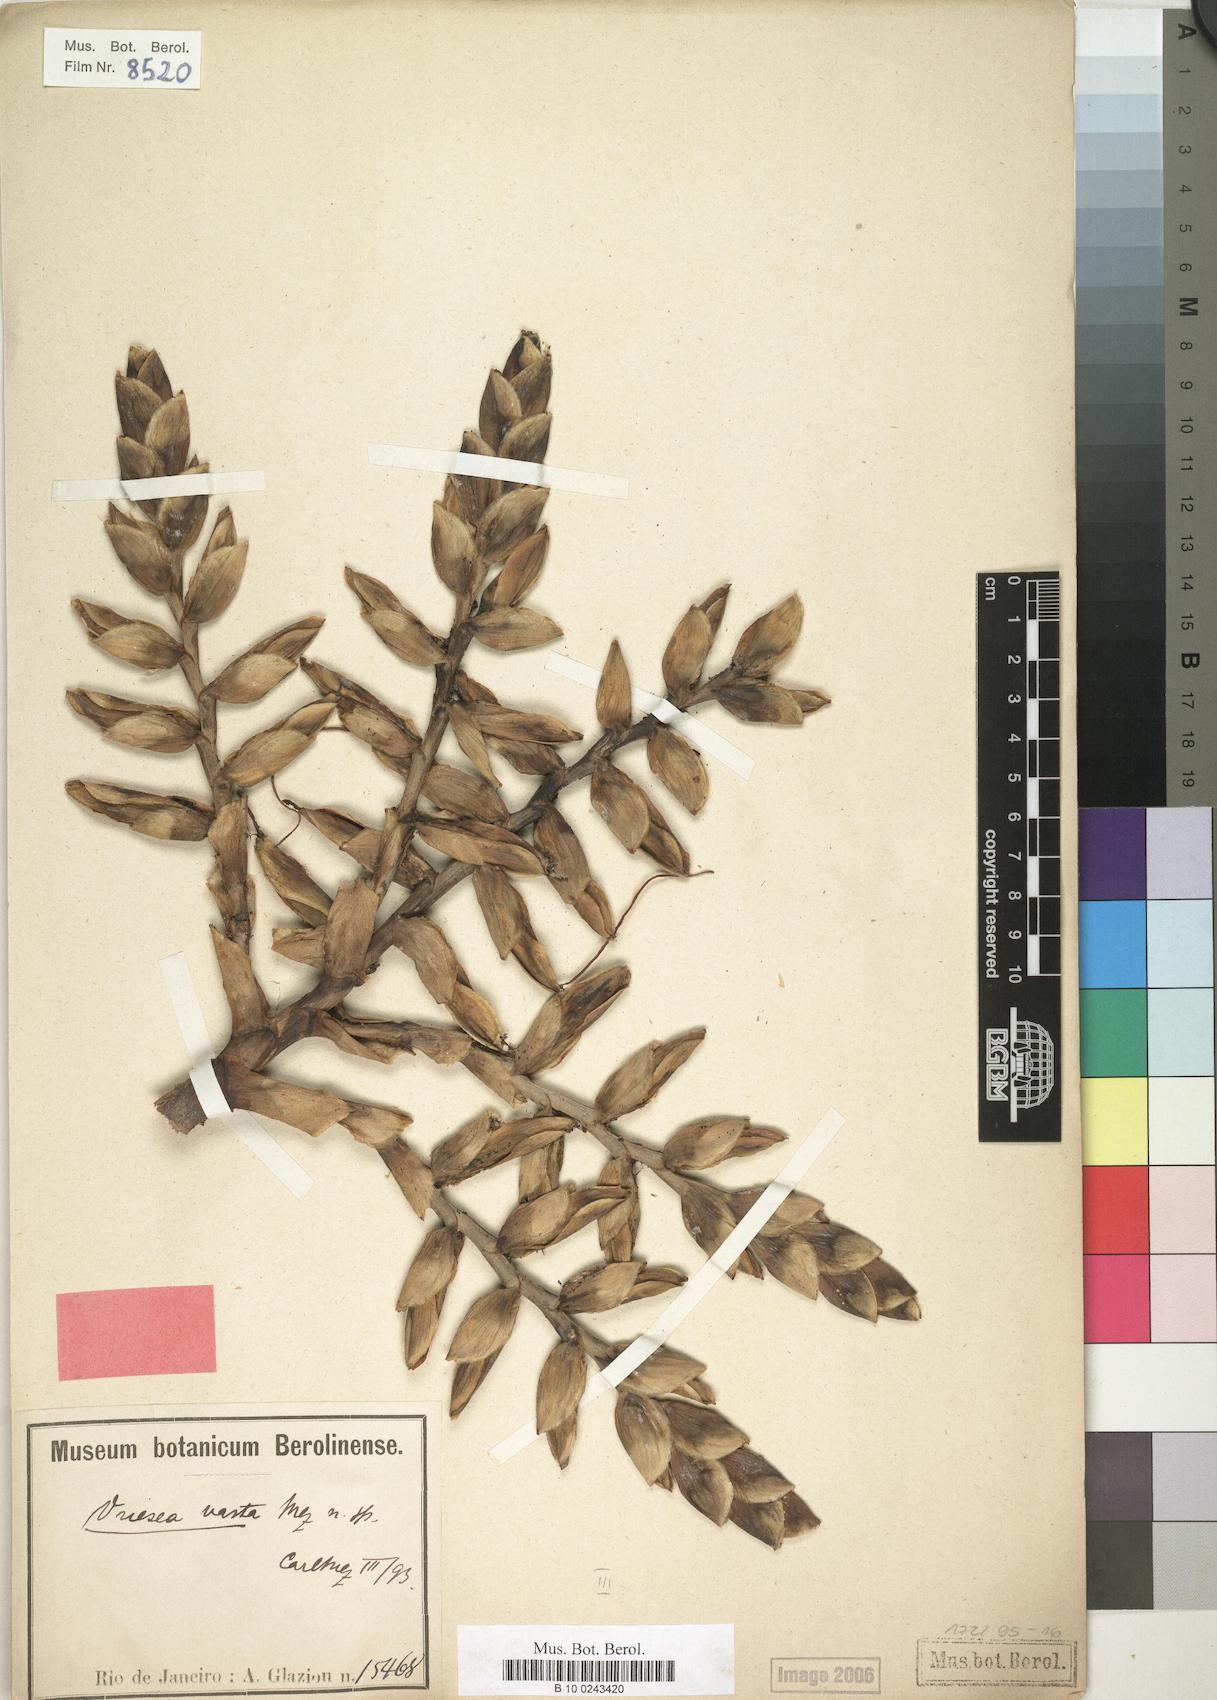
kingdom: Plantae
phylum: Tracheophyta
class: Liliopsida
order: Poales
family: Bromeliaceae
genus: Alcantarea
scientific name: Alcantarea glaziouana
